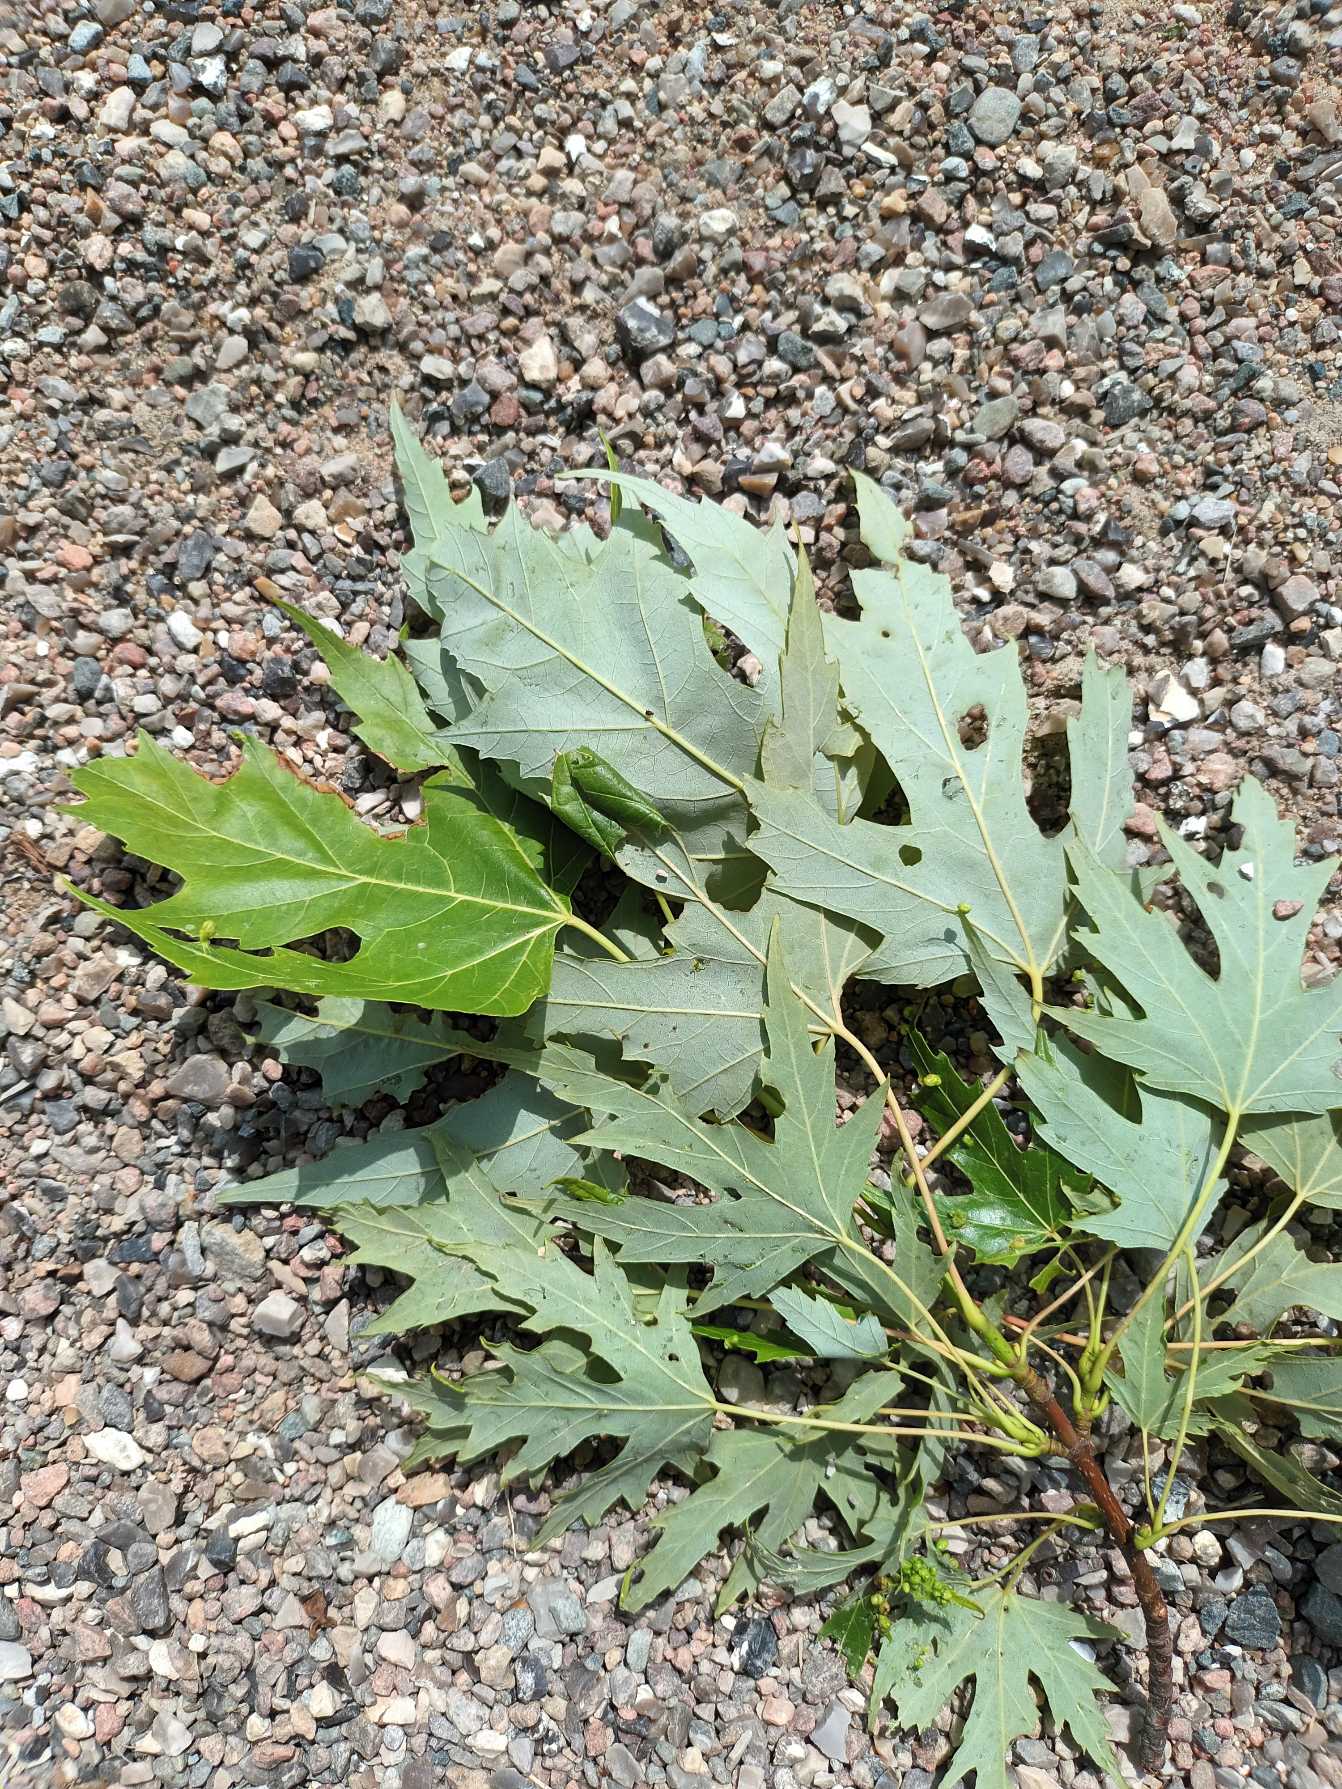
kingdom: Plantae
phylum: Tracheophyta
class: Magnoliopsida
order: Sapindales
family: Sapindaceae
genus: Acer
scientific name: Acer saccharinum
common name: Sølv-løn
